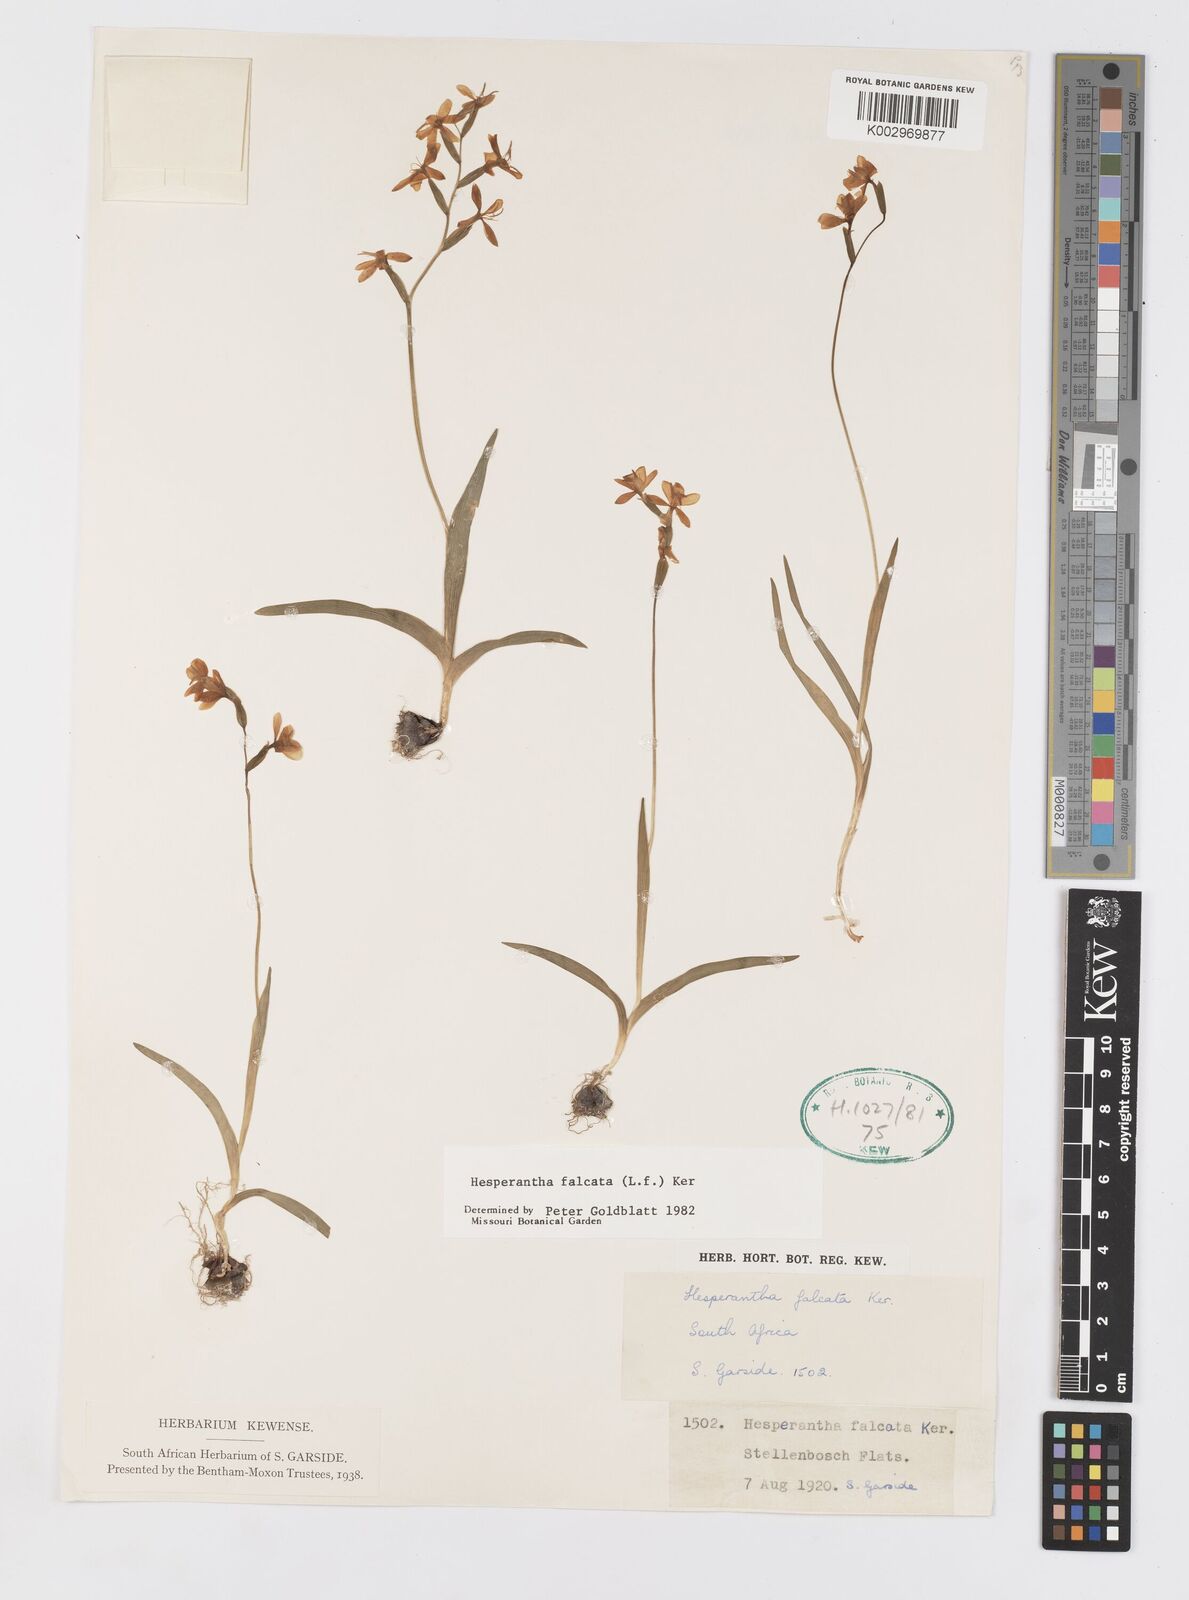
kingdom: Plantae
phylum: Tracheophyta
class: Liliopsida
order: Asparagales
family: Iridaceae
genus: Hesperantha
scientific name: Hesperantha falcata
